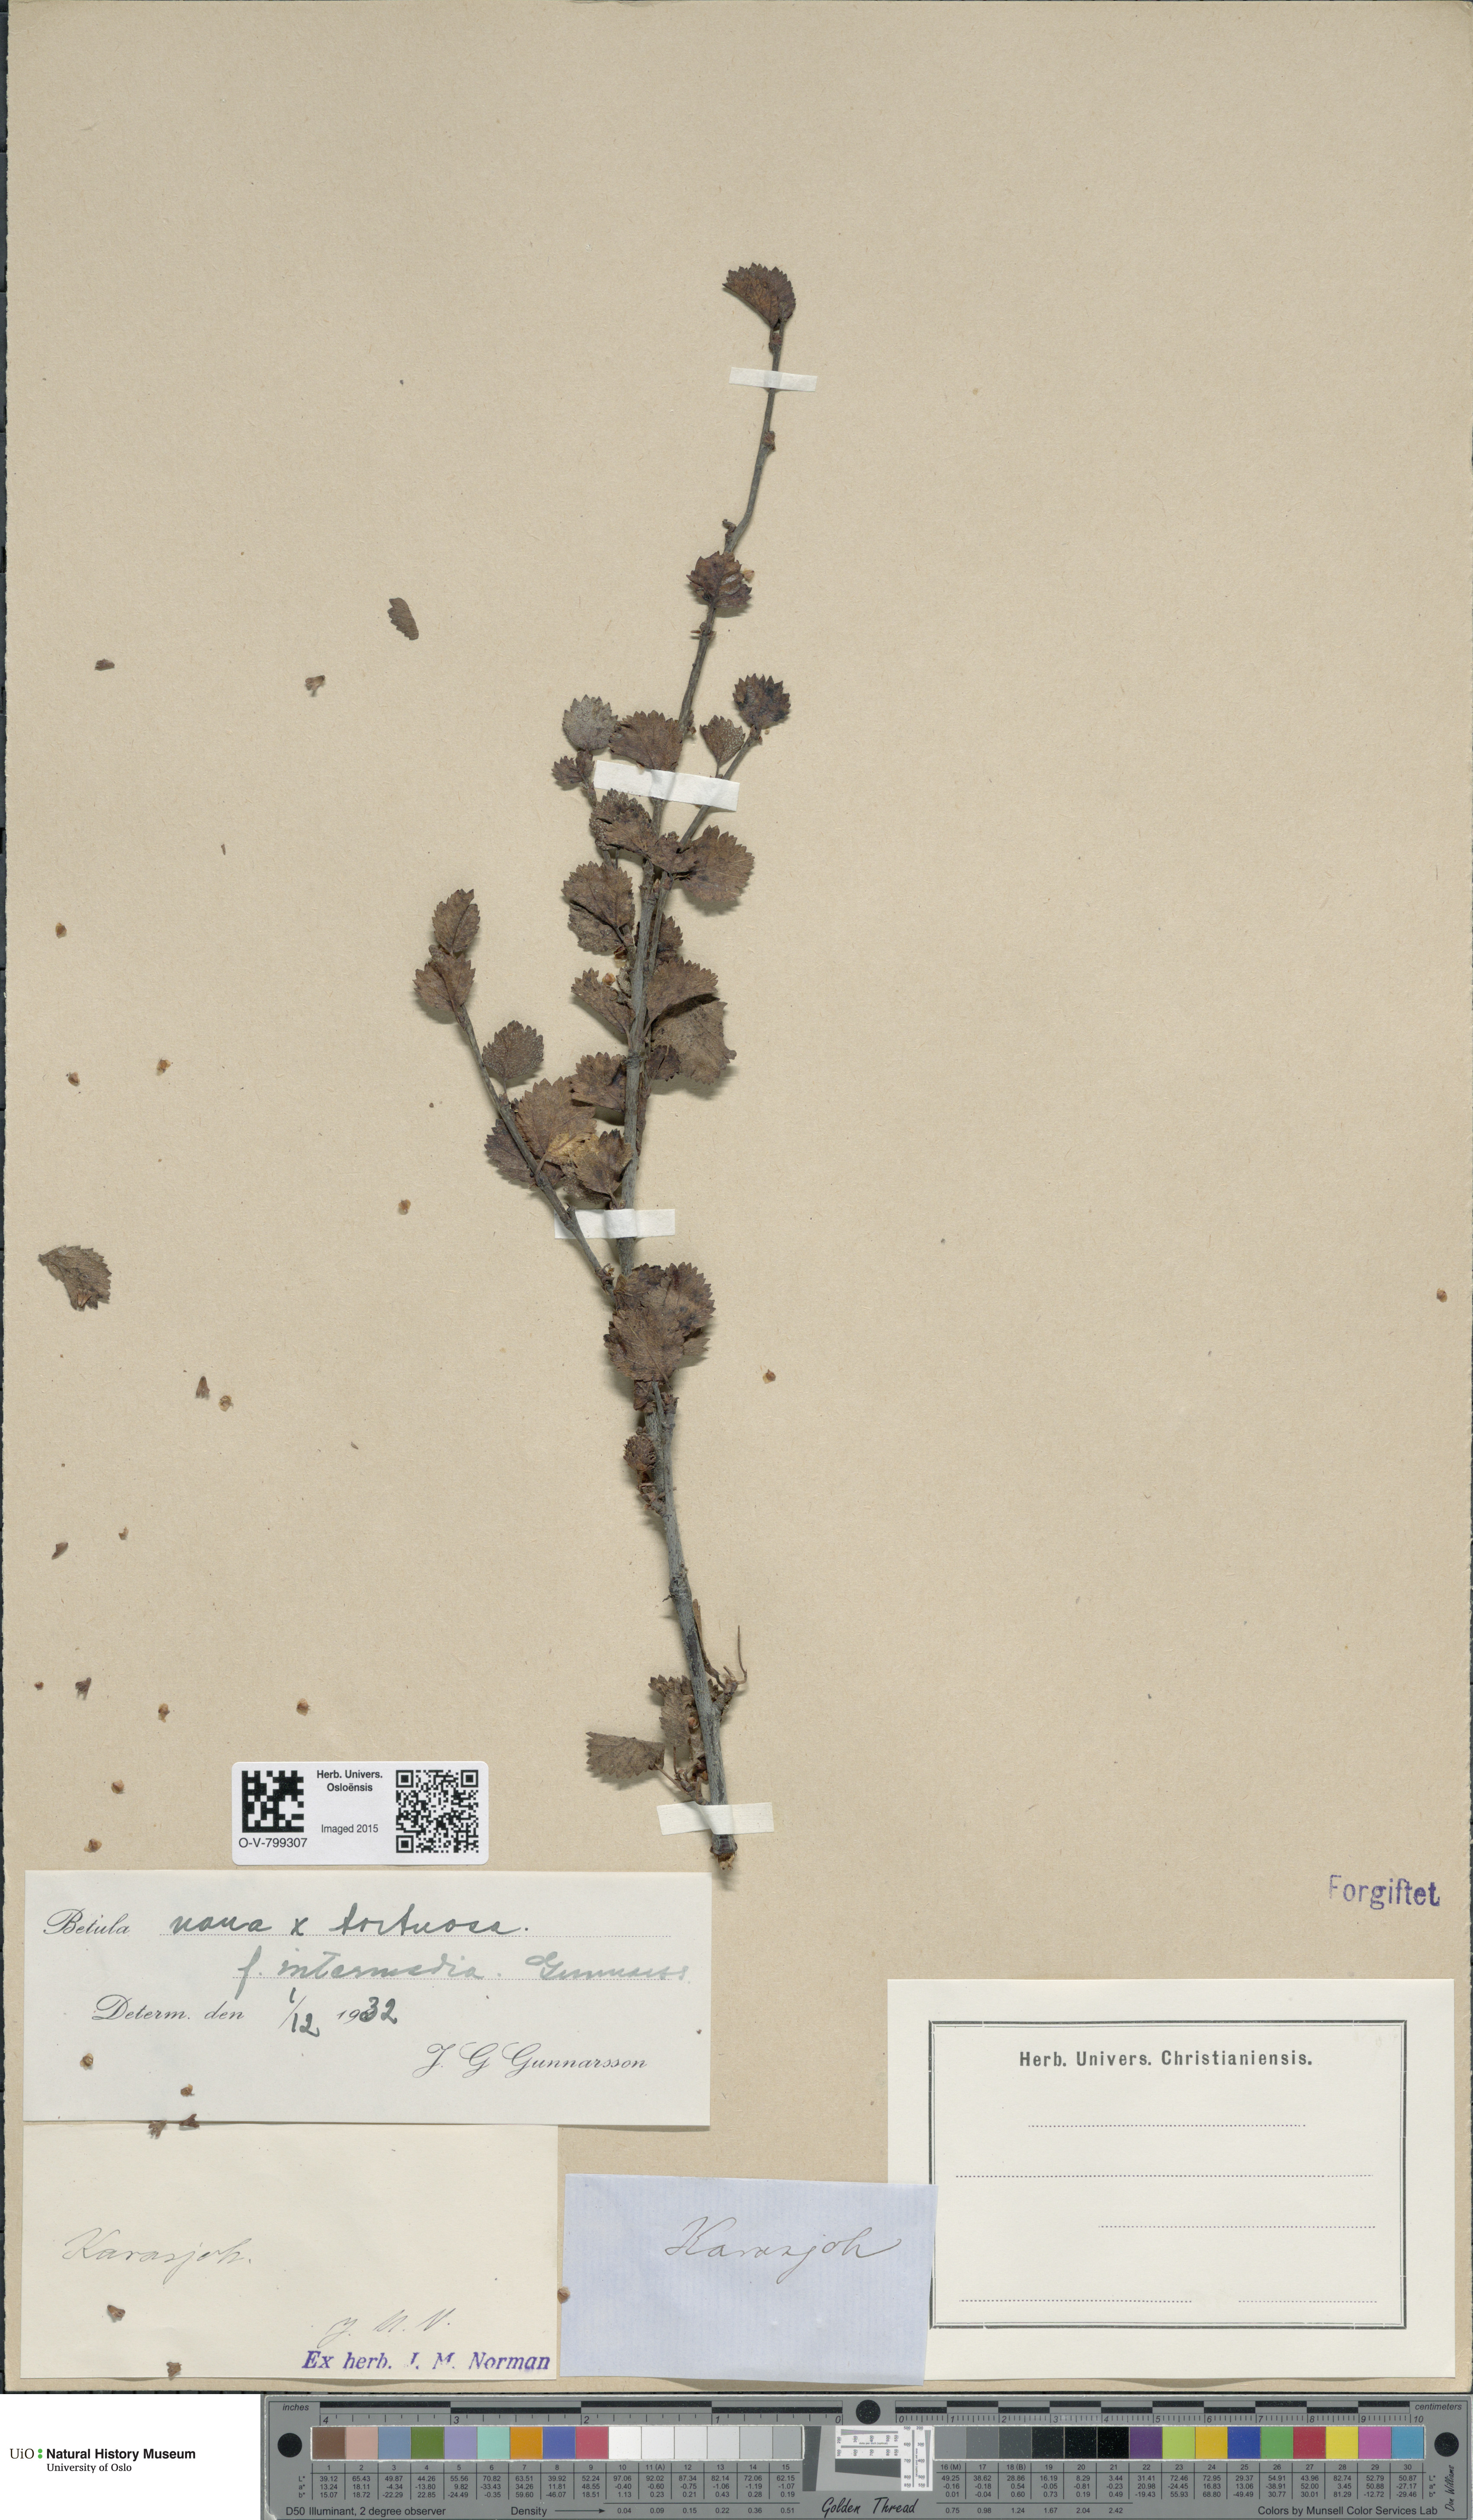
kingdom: Plantae
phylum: Tracheophyta
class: Magnoliopsida
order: Fagales
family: Betulaceae
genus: Betula
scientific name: Betula nana
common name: Arctic dwarf birch
